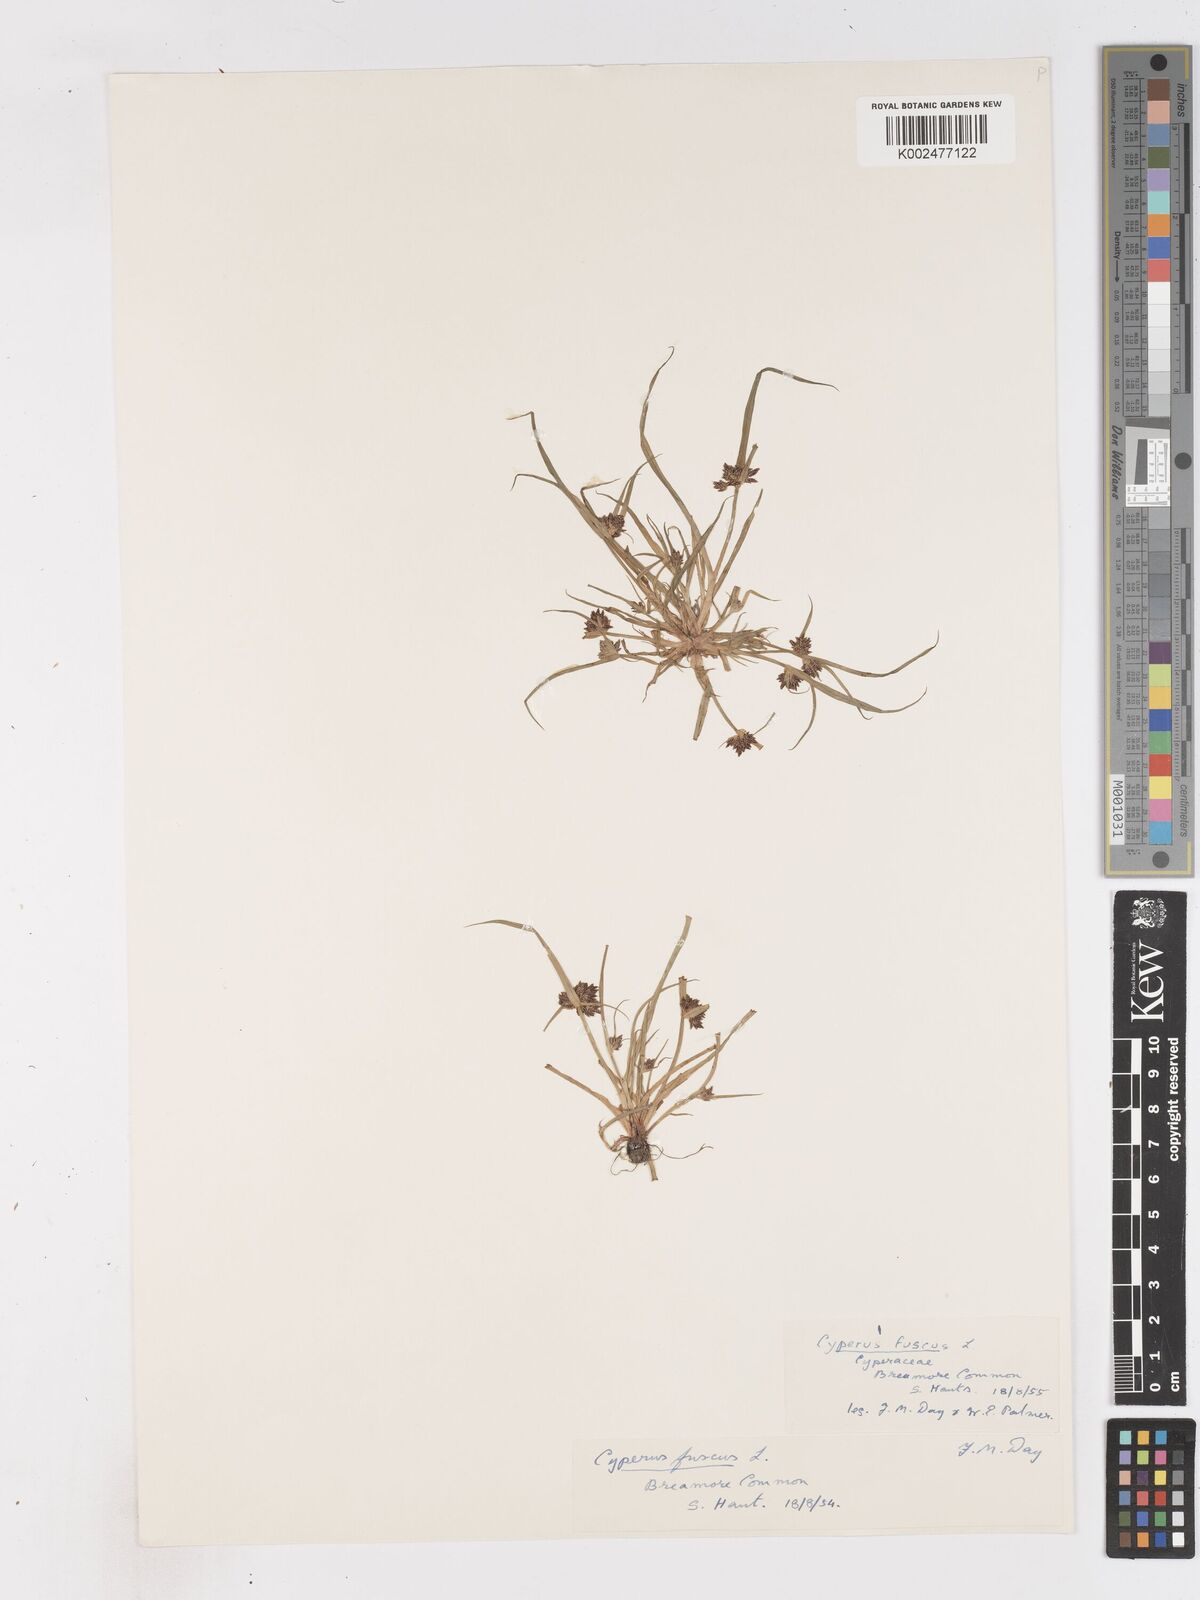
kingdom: Plantae
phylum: Tracheophyta
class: Liliopsida
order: Poales
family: Cyperaceae
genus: Cyperus
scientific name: Cyperus fuscus
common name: Brown galingale
